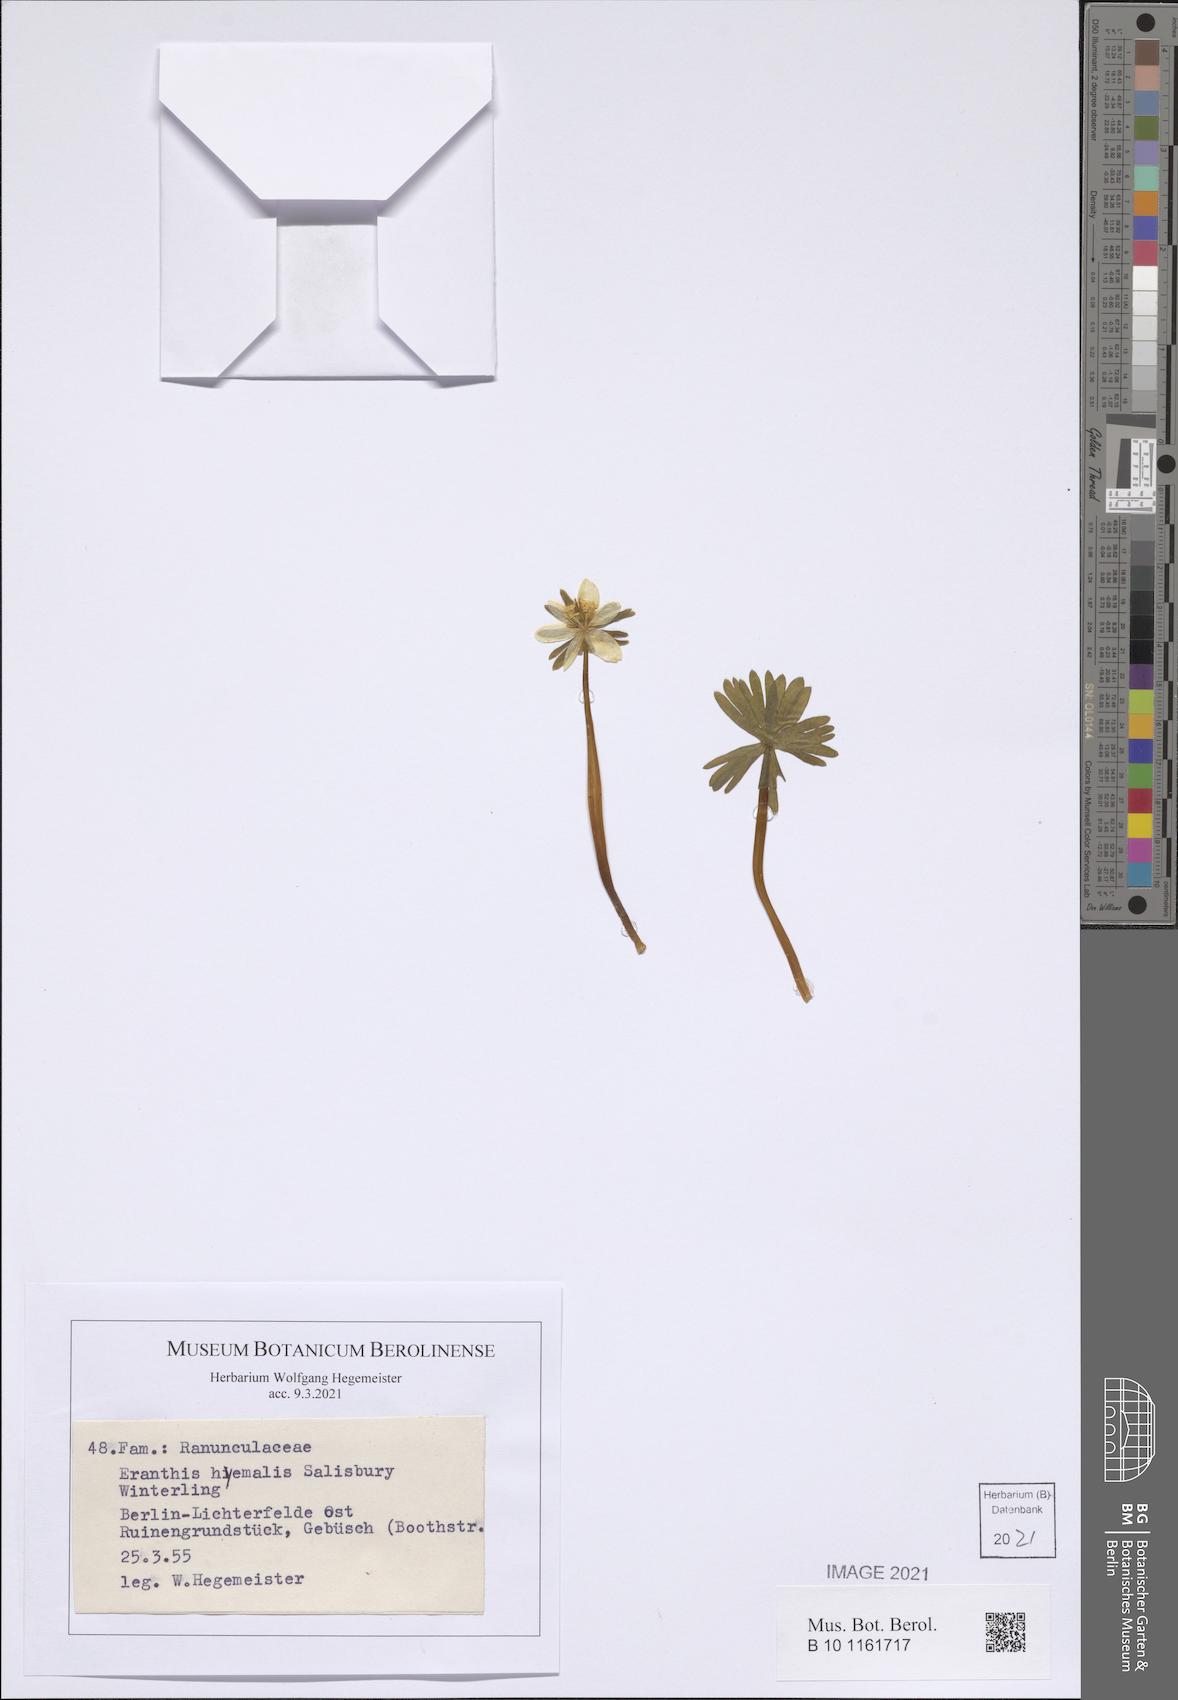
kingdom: Plantae
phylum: Tracheophyta
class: Magnoliopsida
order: Ranunculales
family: Ranunculaceae
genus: Eranthis
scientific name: Eranthis hyemalis
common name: Winter aconite
